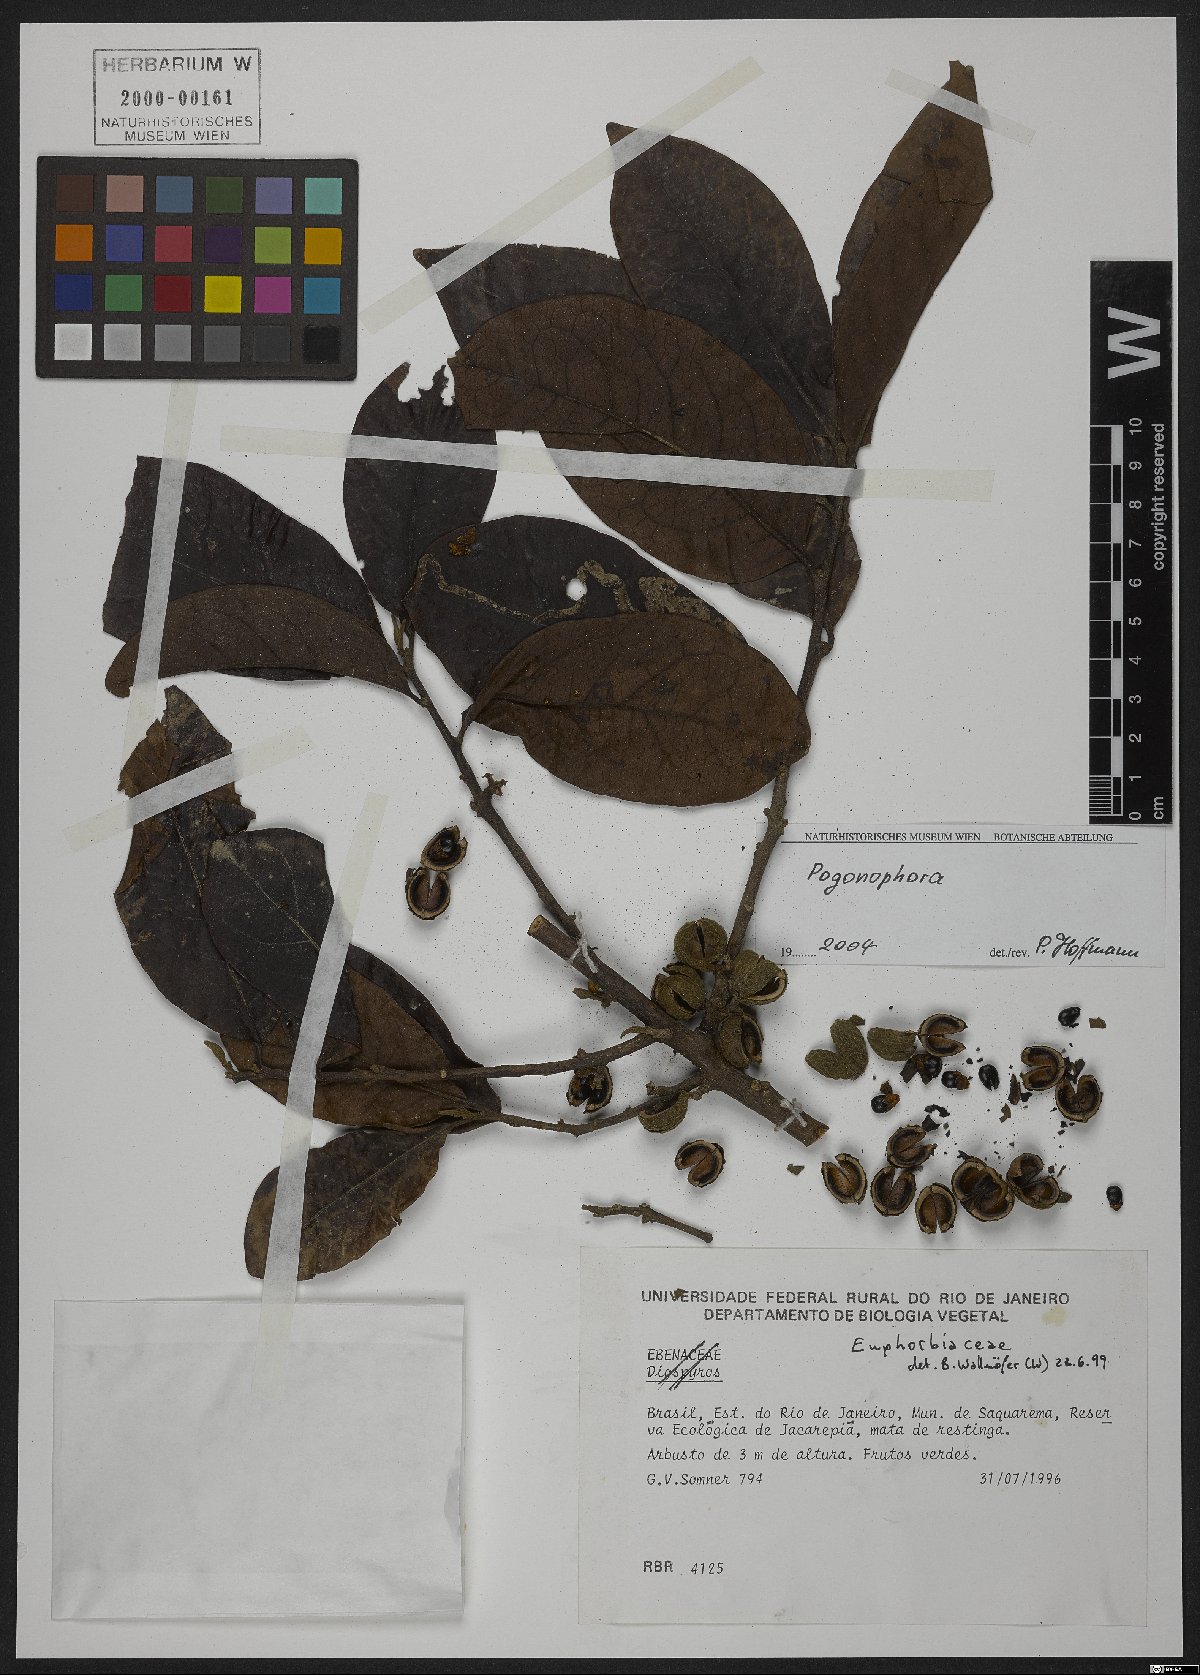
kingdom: Plantae
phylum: Tracheophyta
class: Magnoliopsida
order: Malpighiales
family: Peraceae
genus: Pogonophora
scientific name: Pogonophora
